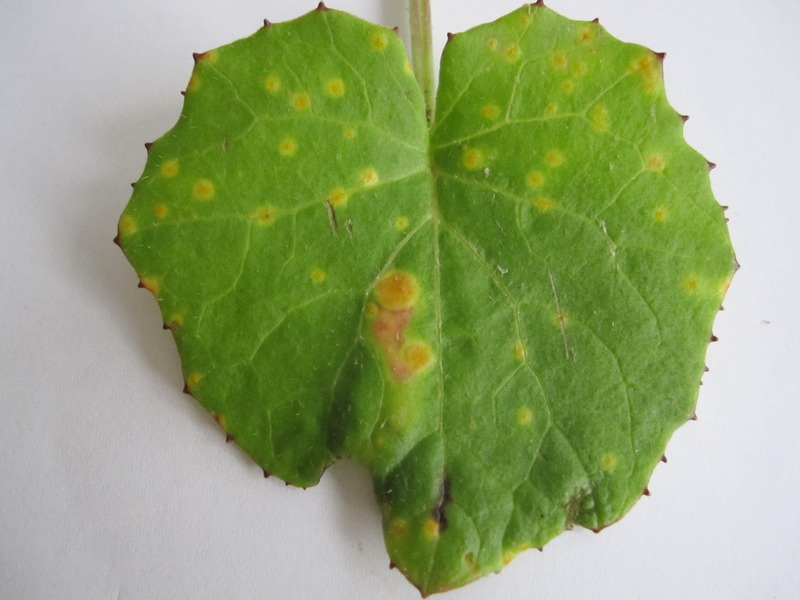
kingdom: Fungi
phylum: Basidiomycota
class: Pucciniomycetes
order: Pucciniales
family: Pucciniaceae
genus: Puccinia
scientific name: Puccinia poarum
